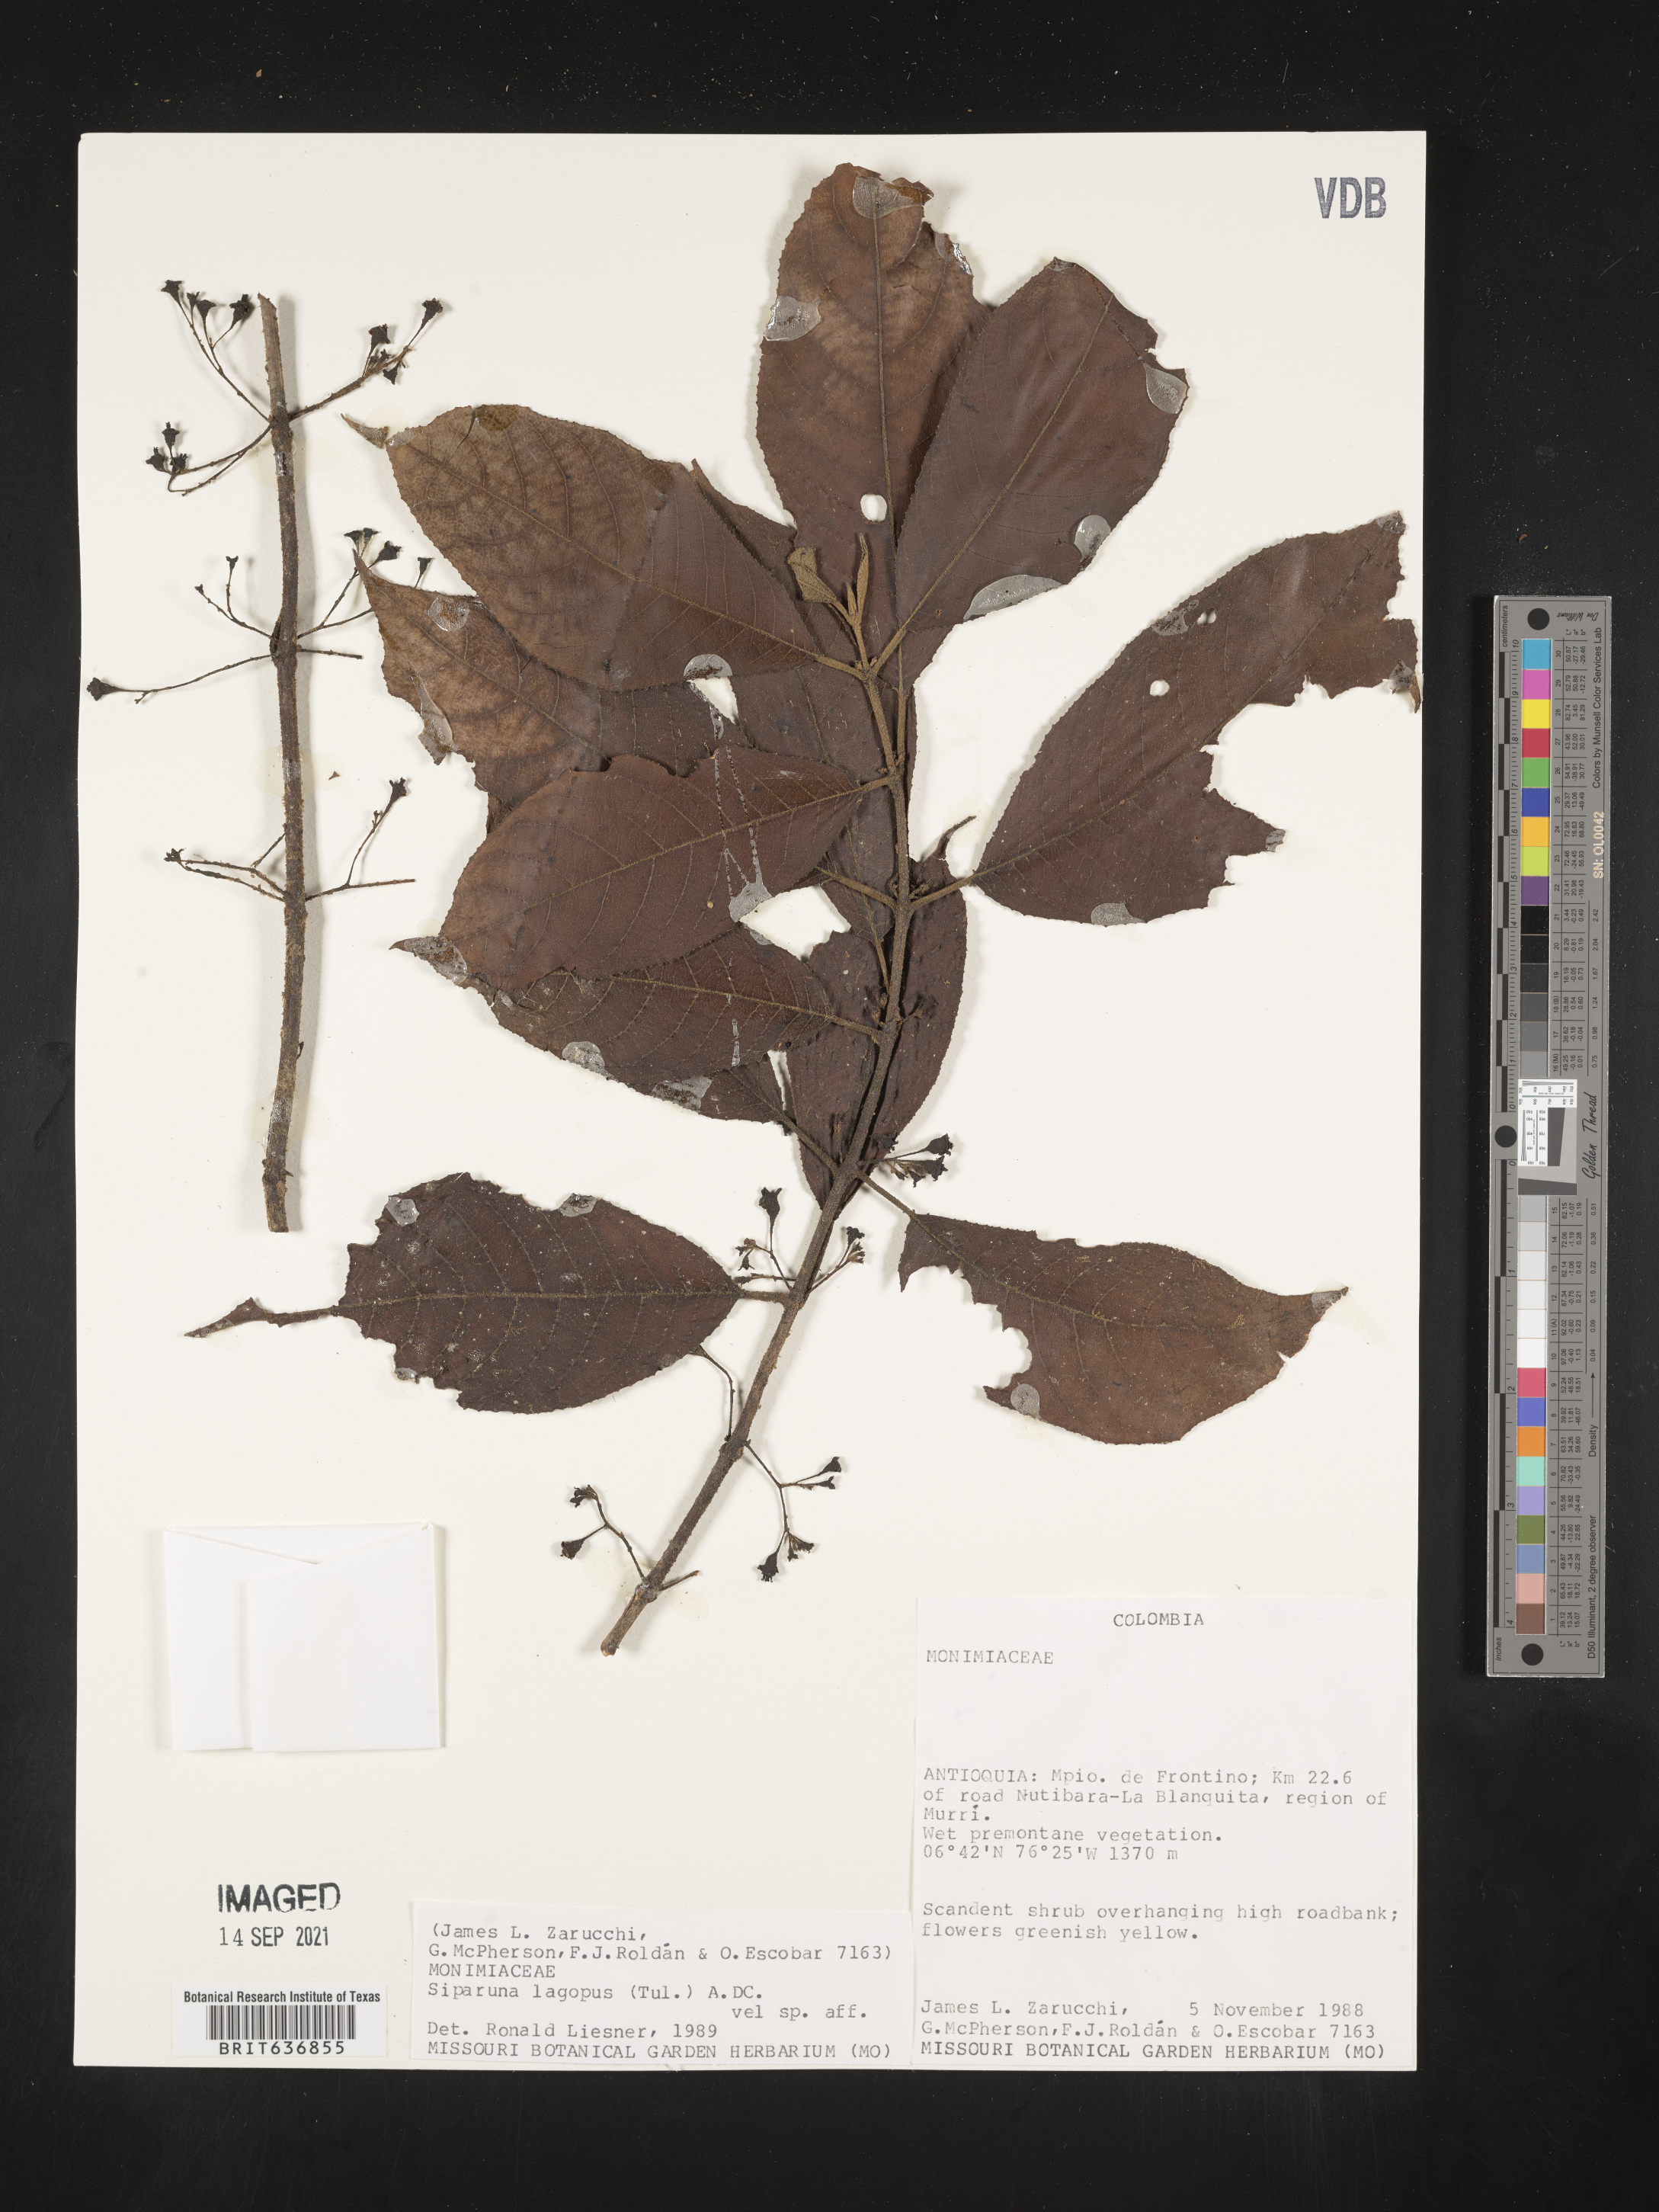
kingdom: Plantae
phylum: Tracheophyta
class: Magnoliopsida
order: Laurales
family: Siparunaceae
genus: Siparuna
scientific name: Siparuna
